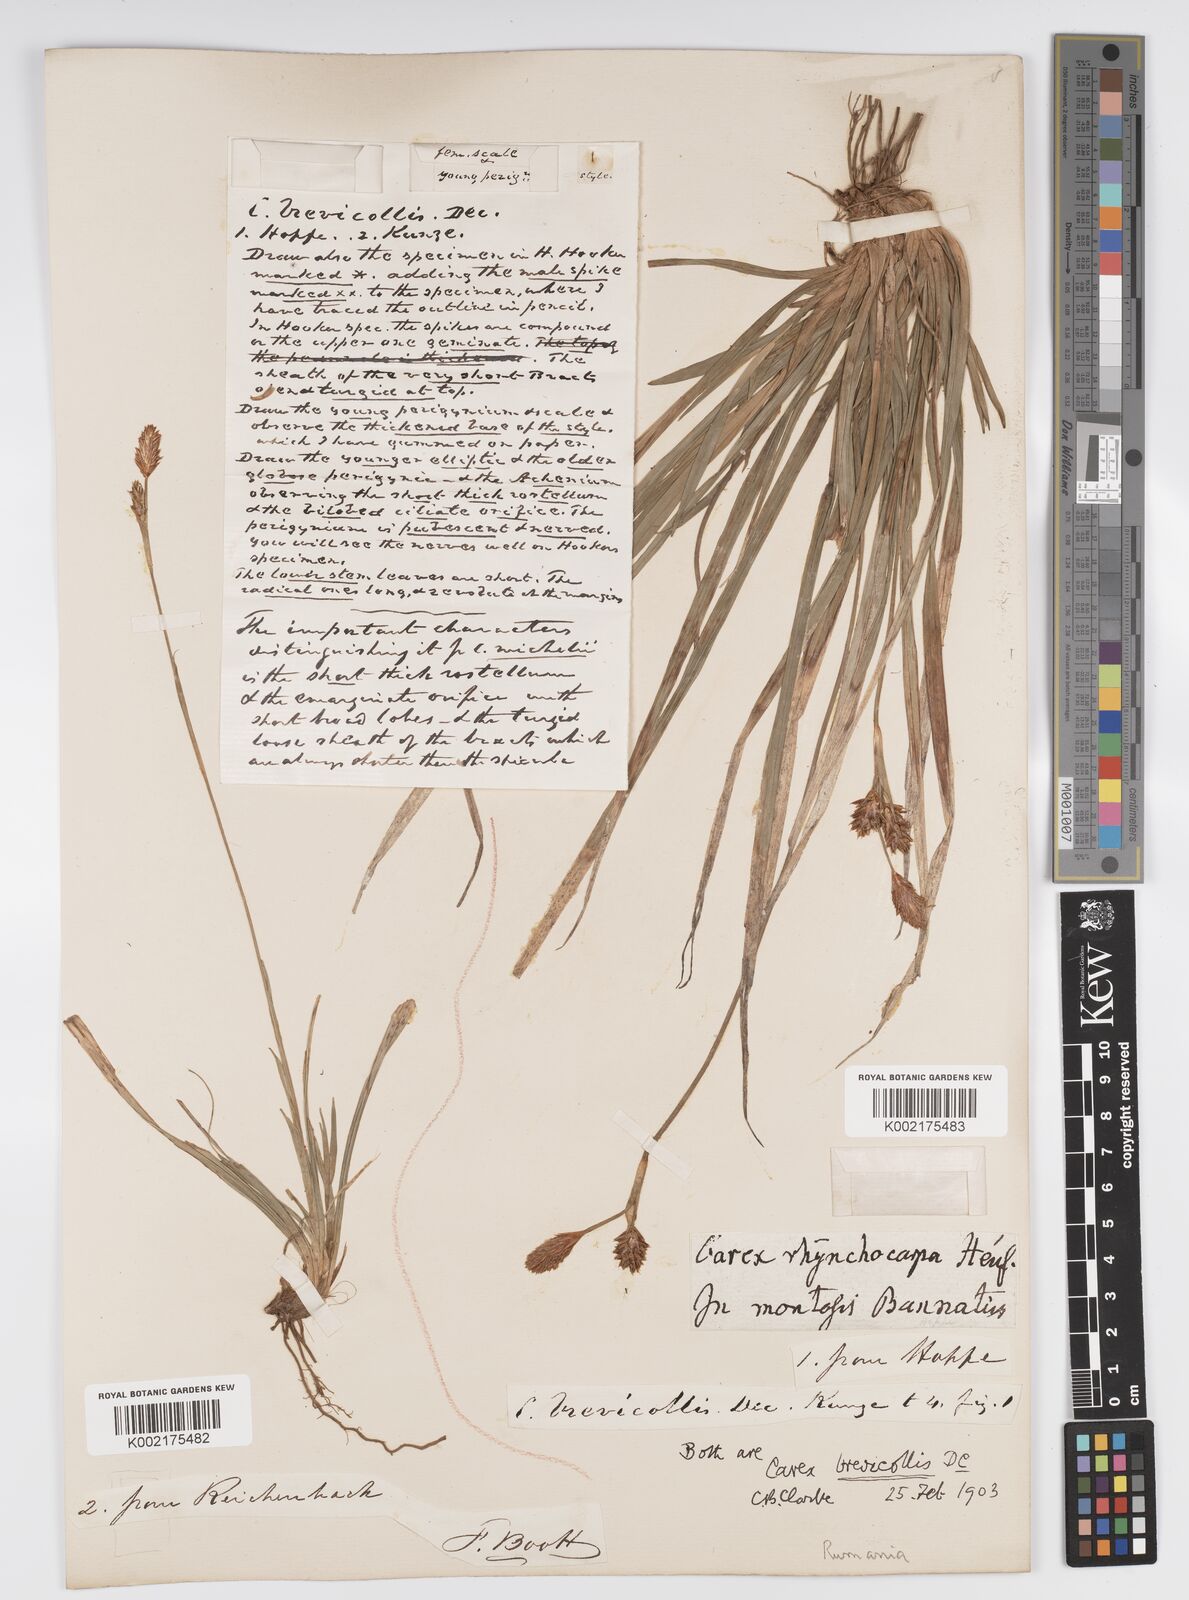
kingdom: Plantae
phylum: Tracheophyta
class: Liliopsida
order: Poales
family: Cyperaceae
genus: Carex
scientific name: Carex brevicollis
